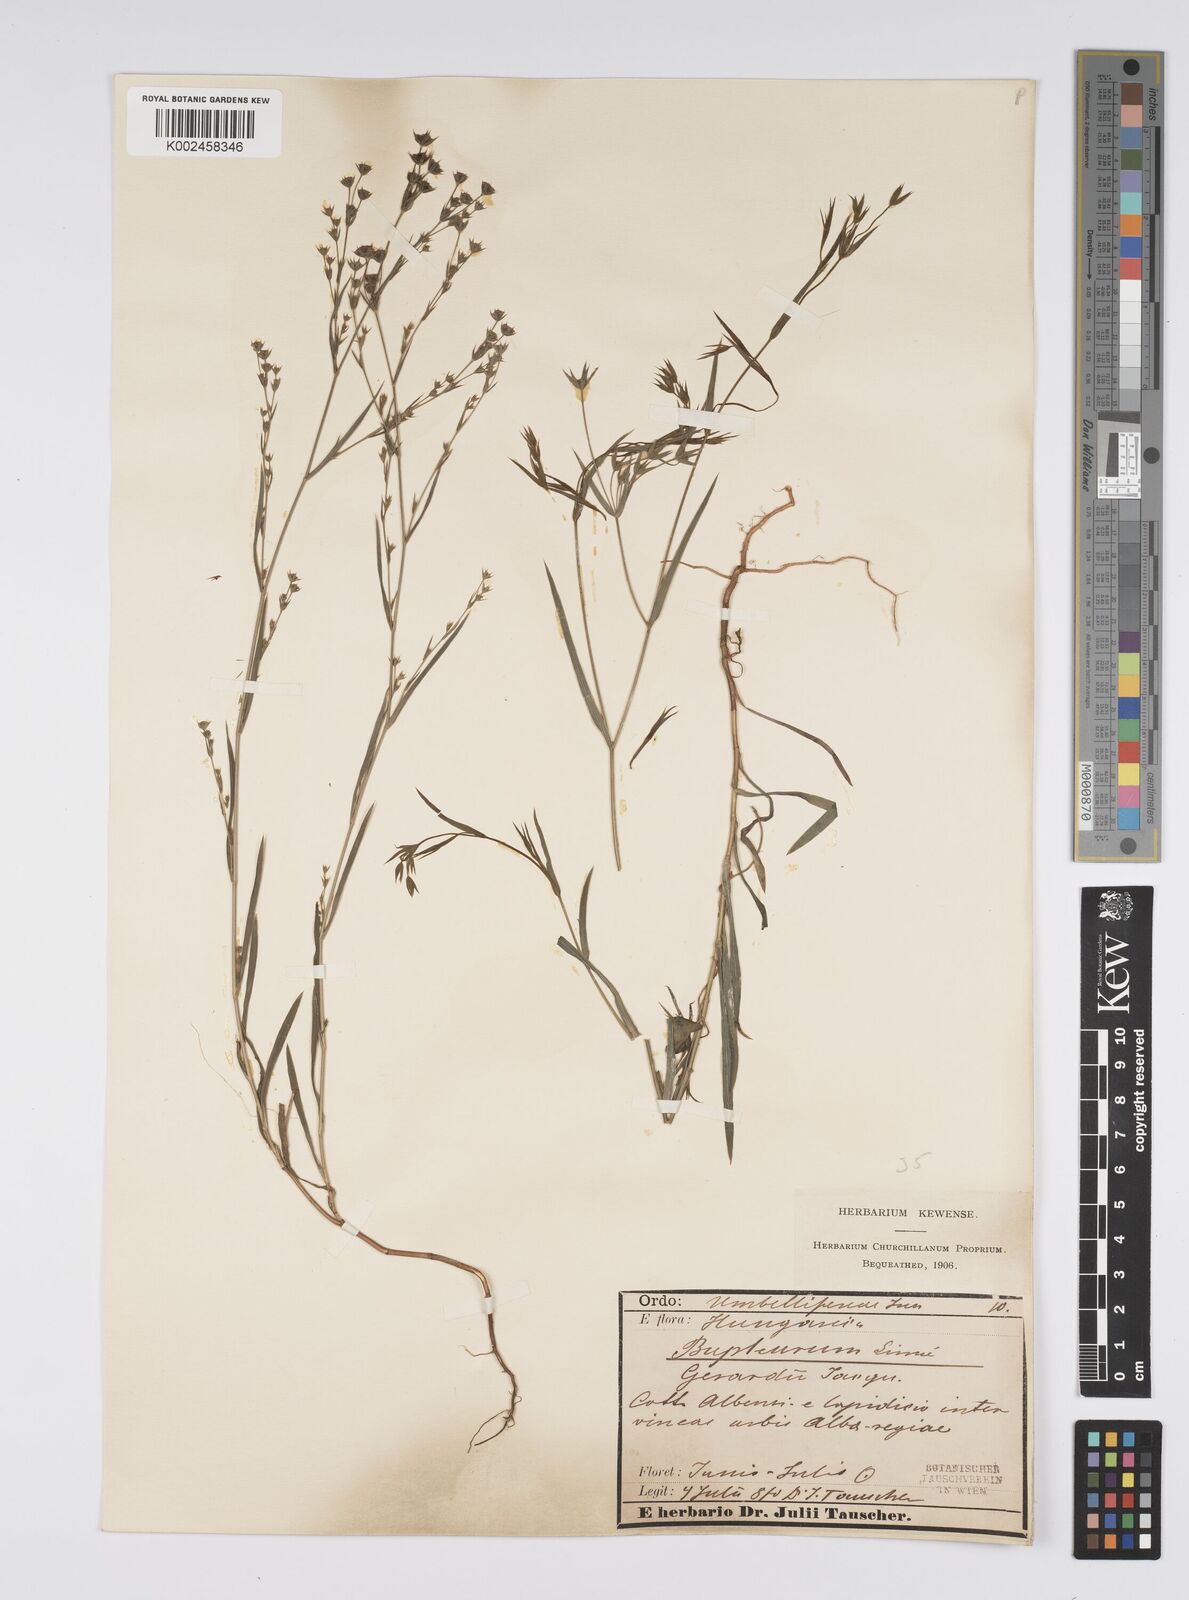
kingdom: Plantae
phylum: Tracheophyta
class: Magnoliopsida
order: Apiales
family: Apiaceae
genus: Bupleurum
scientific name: Bupleurum gerardi
